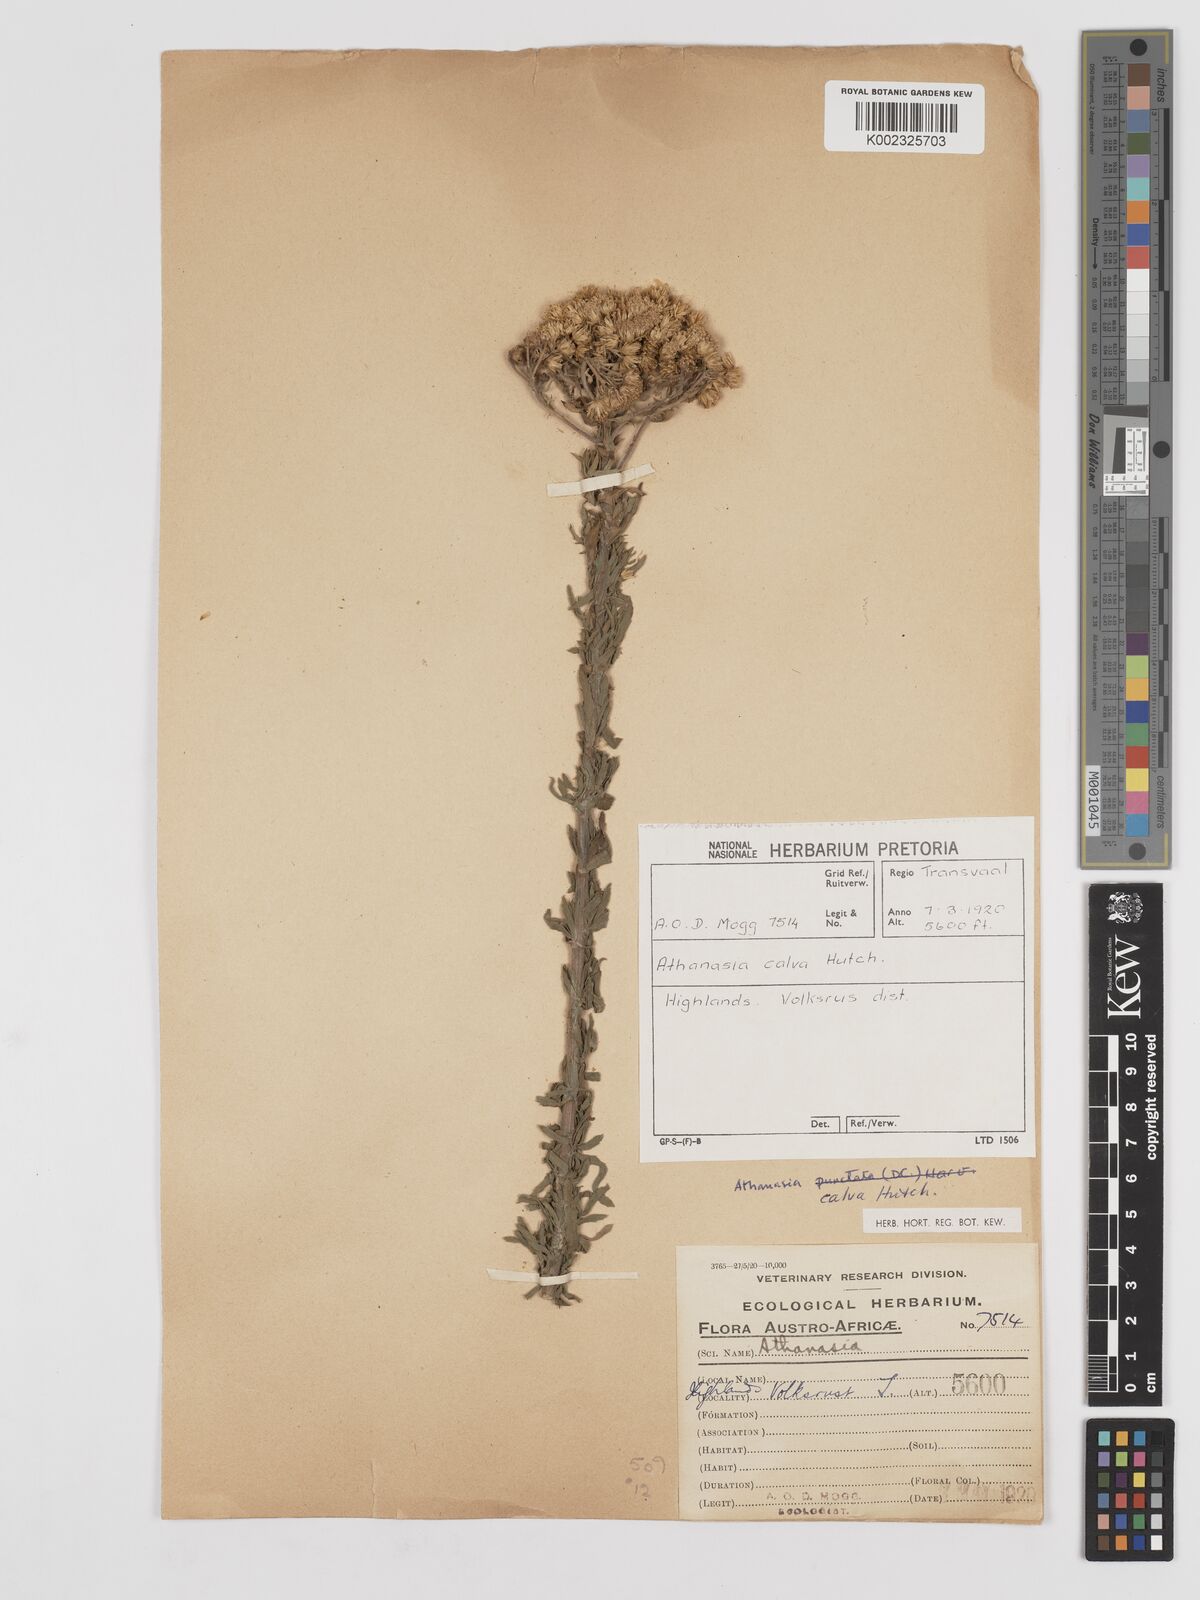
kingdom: Plantae
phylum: Tracheophyta
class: Magnoliopsida
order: Asterales
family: Asteraceae
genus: Inulanthera
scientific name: Inulanthera dregeana
